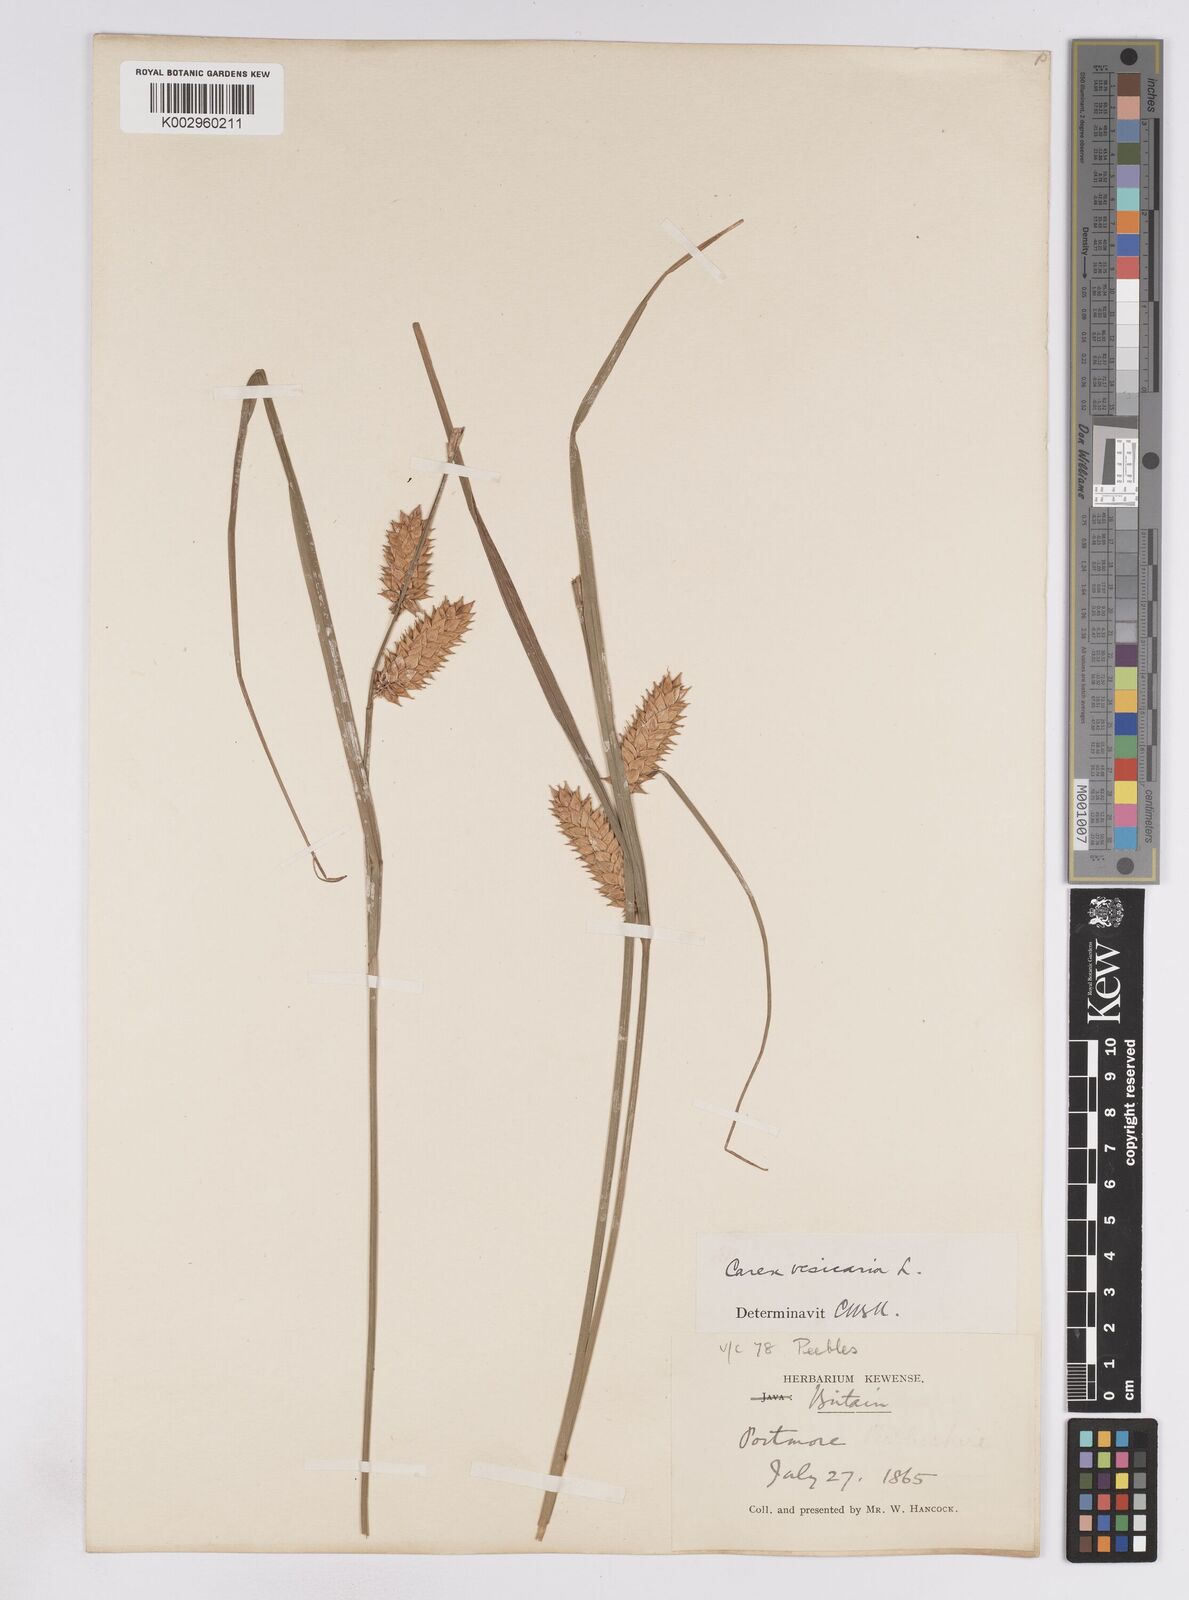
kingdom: Plantae
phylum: Tracheophyta
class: Liliopsida
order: Poales
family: Cyperaceae
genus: Carex
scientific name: Carex vesicaria
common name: Bladder-sedge
